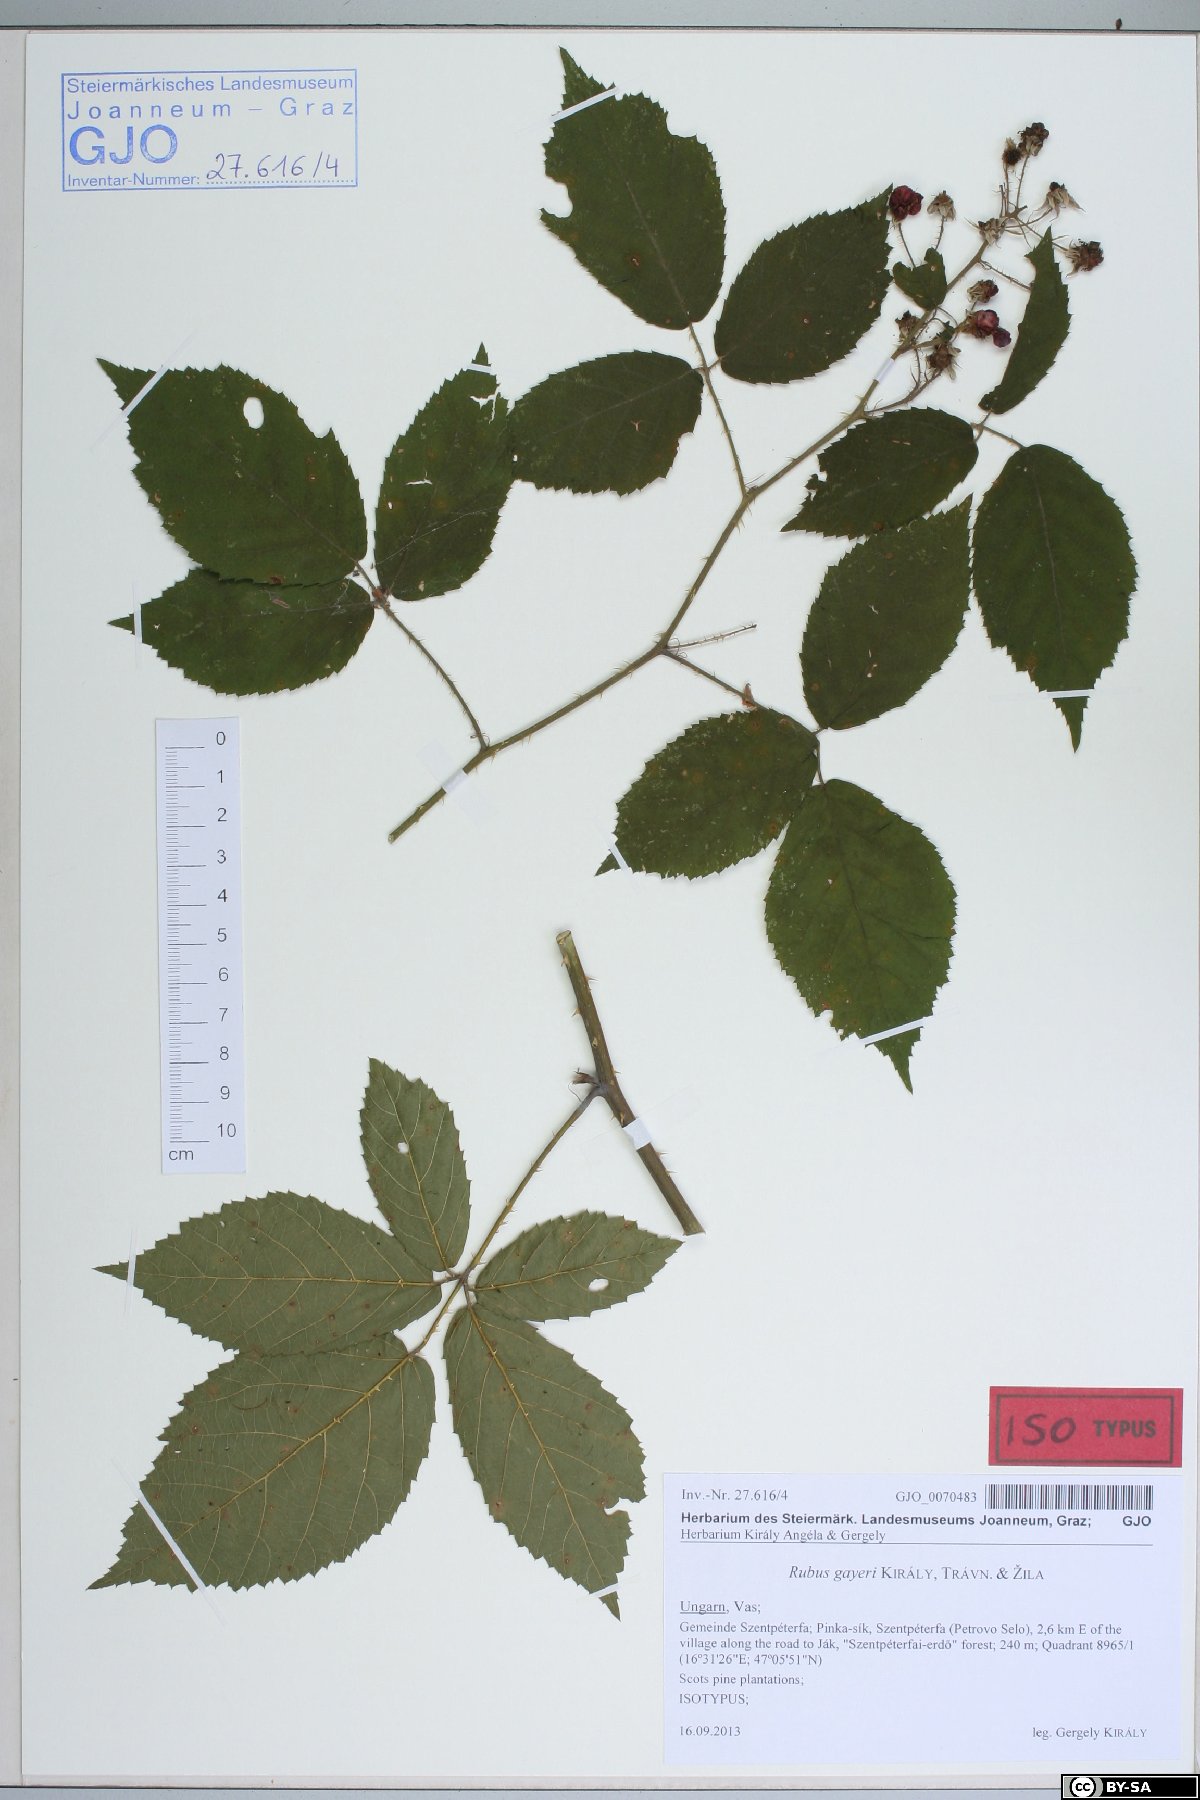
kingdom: Plantae
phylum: Tracheophyta
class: Magnoliopsida
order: Rosales
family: Rosaceae
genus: Rubus
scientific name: Rubus gayeri
